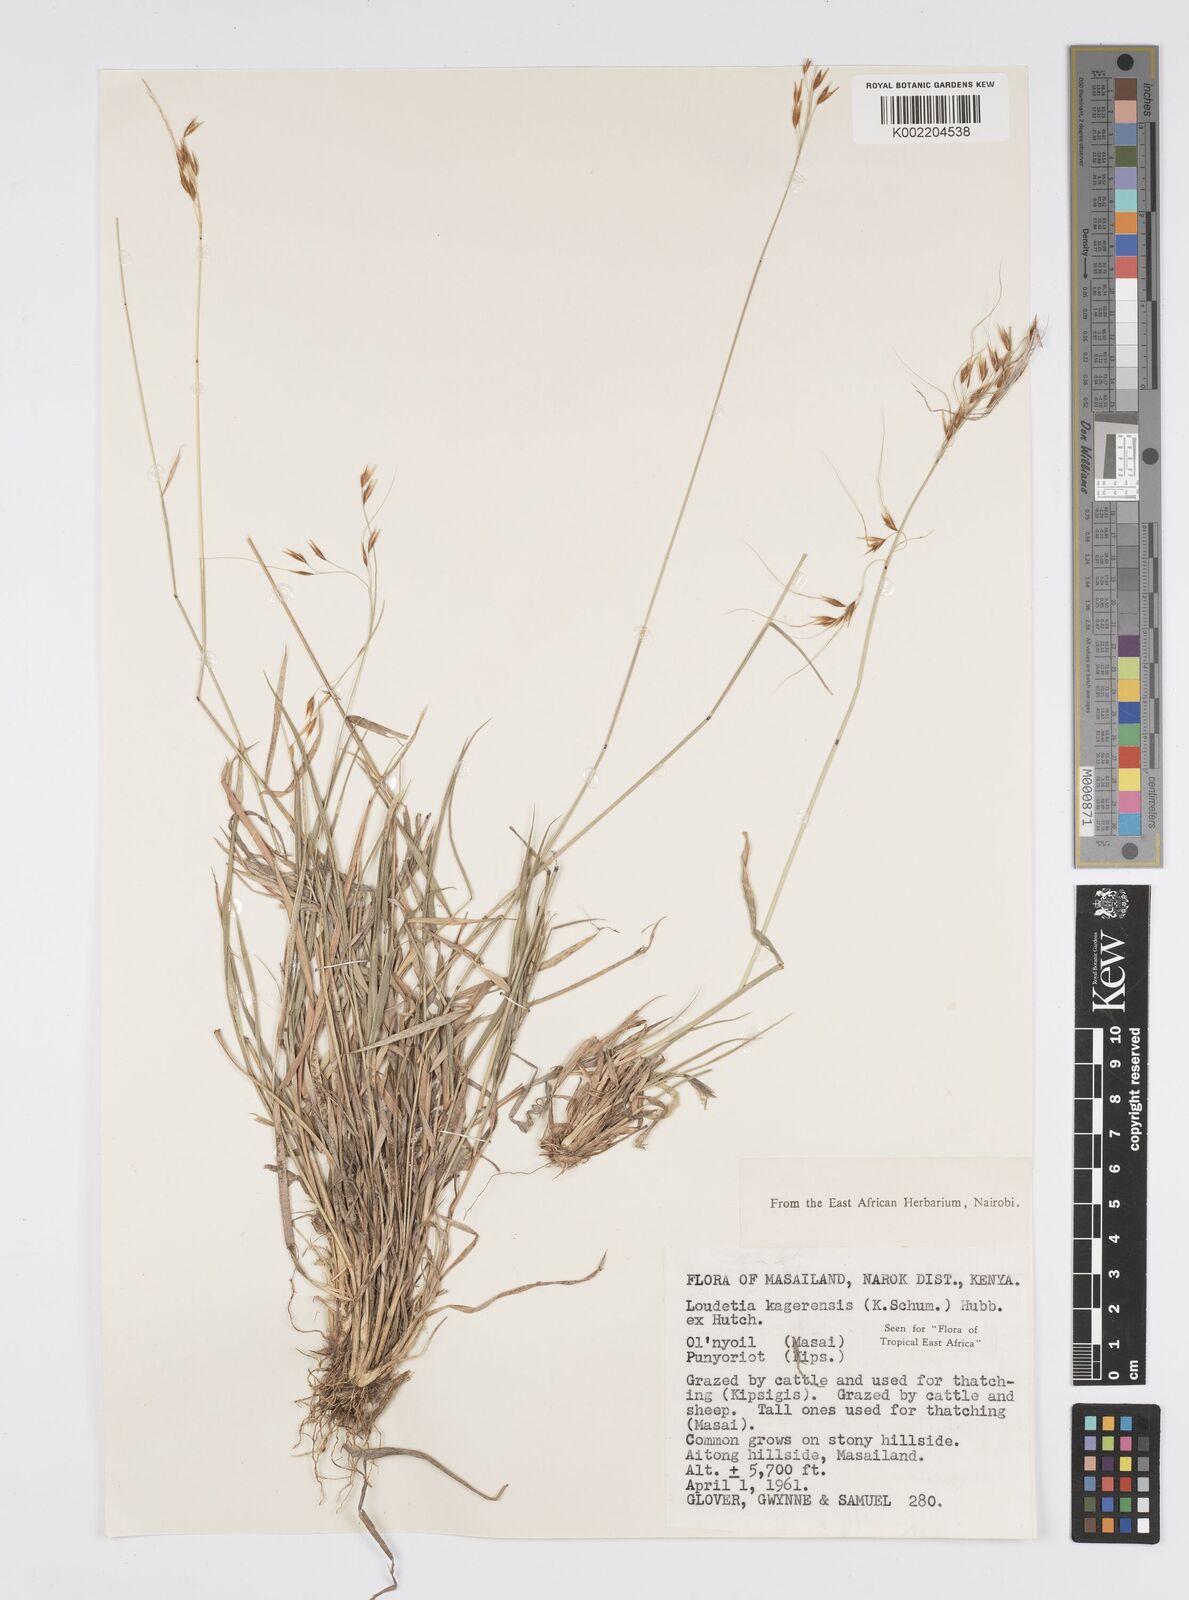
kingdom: Plantae
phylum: Tracheophyta
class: Liliopsida
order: Poales
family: Poaceae
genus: Loudetia
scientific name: Loudetia kagerensis
